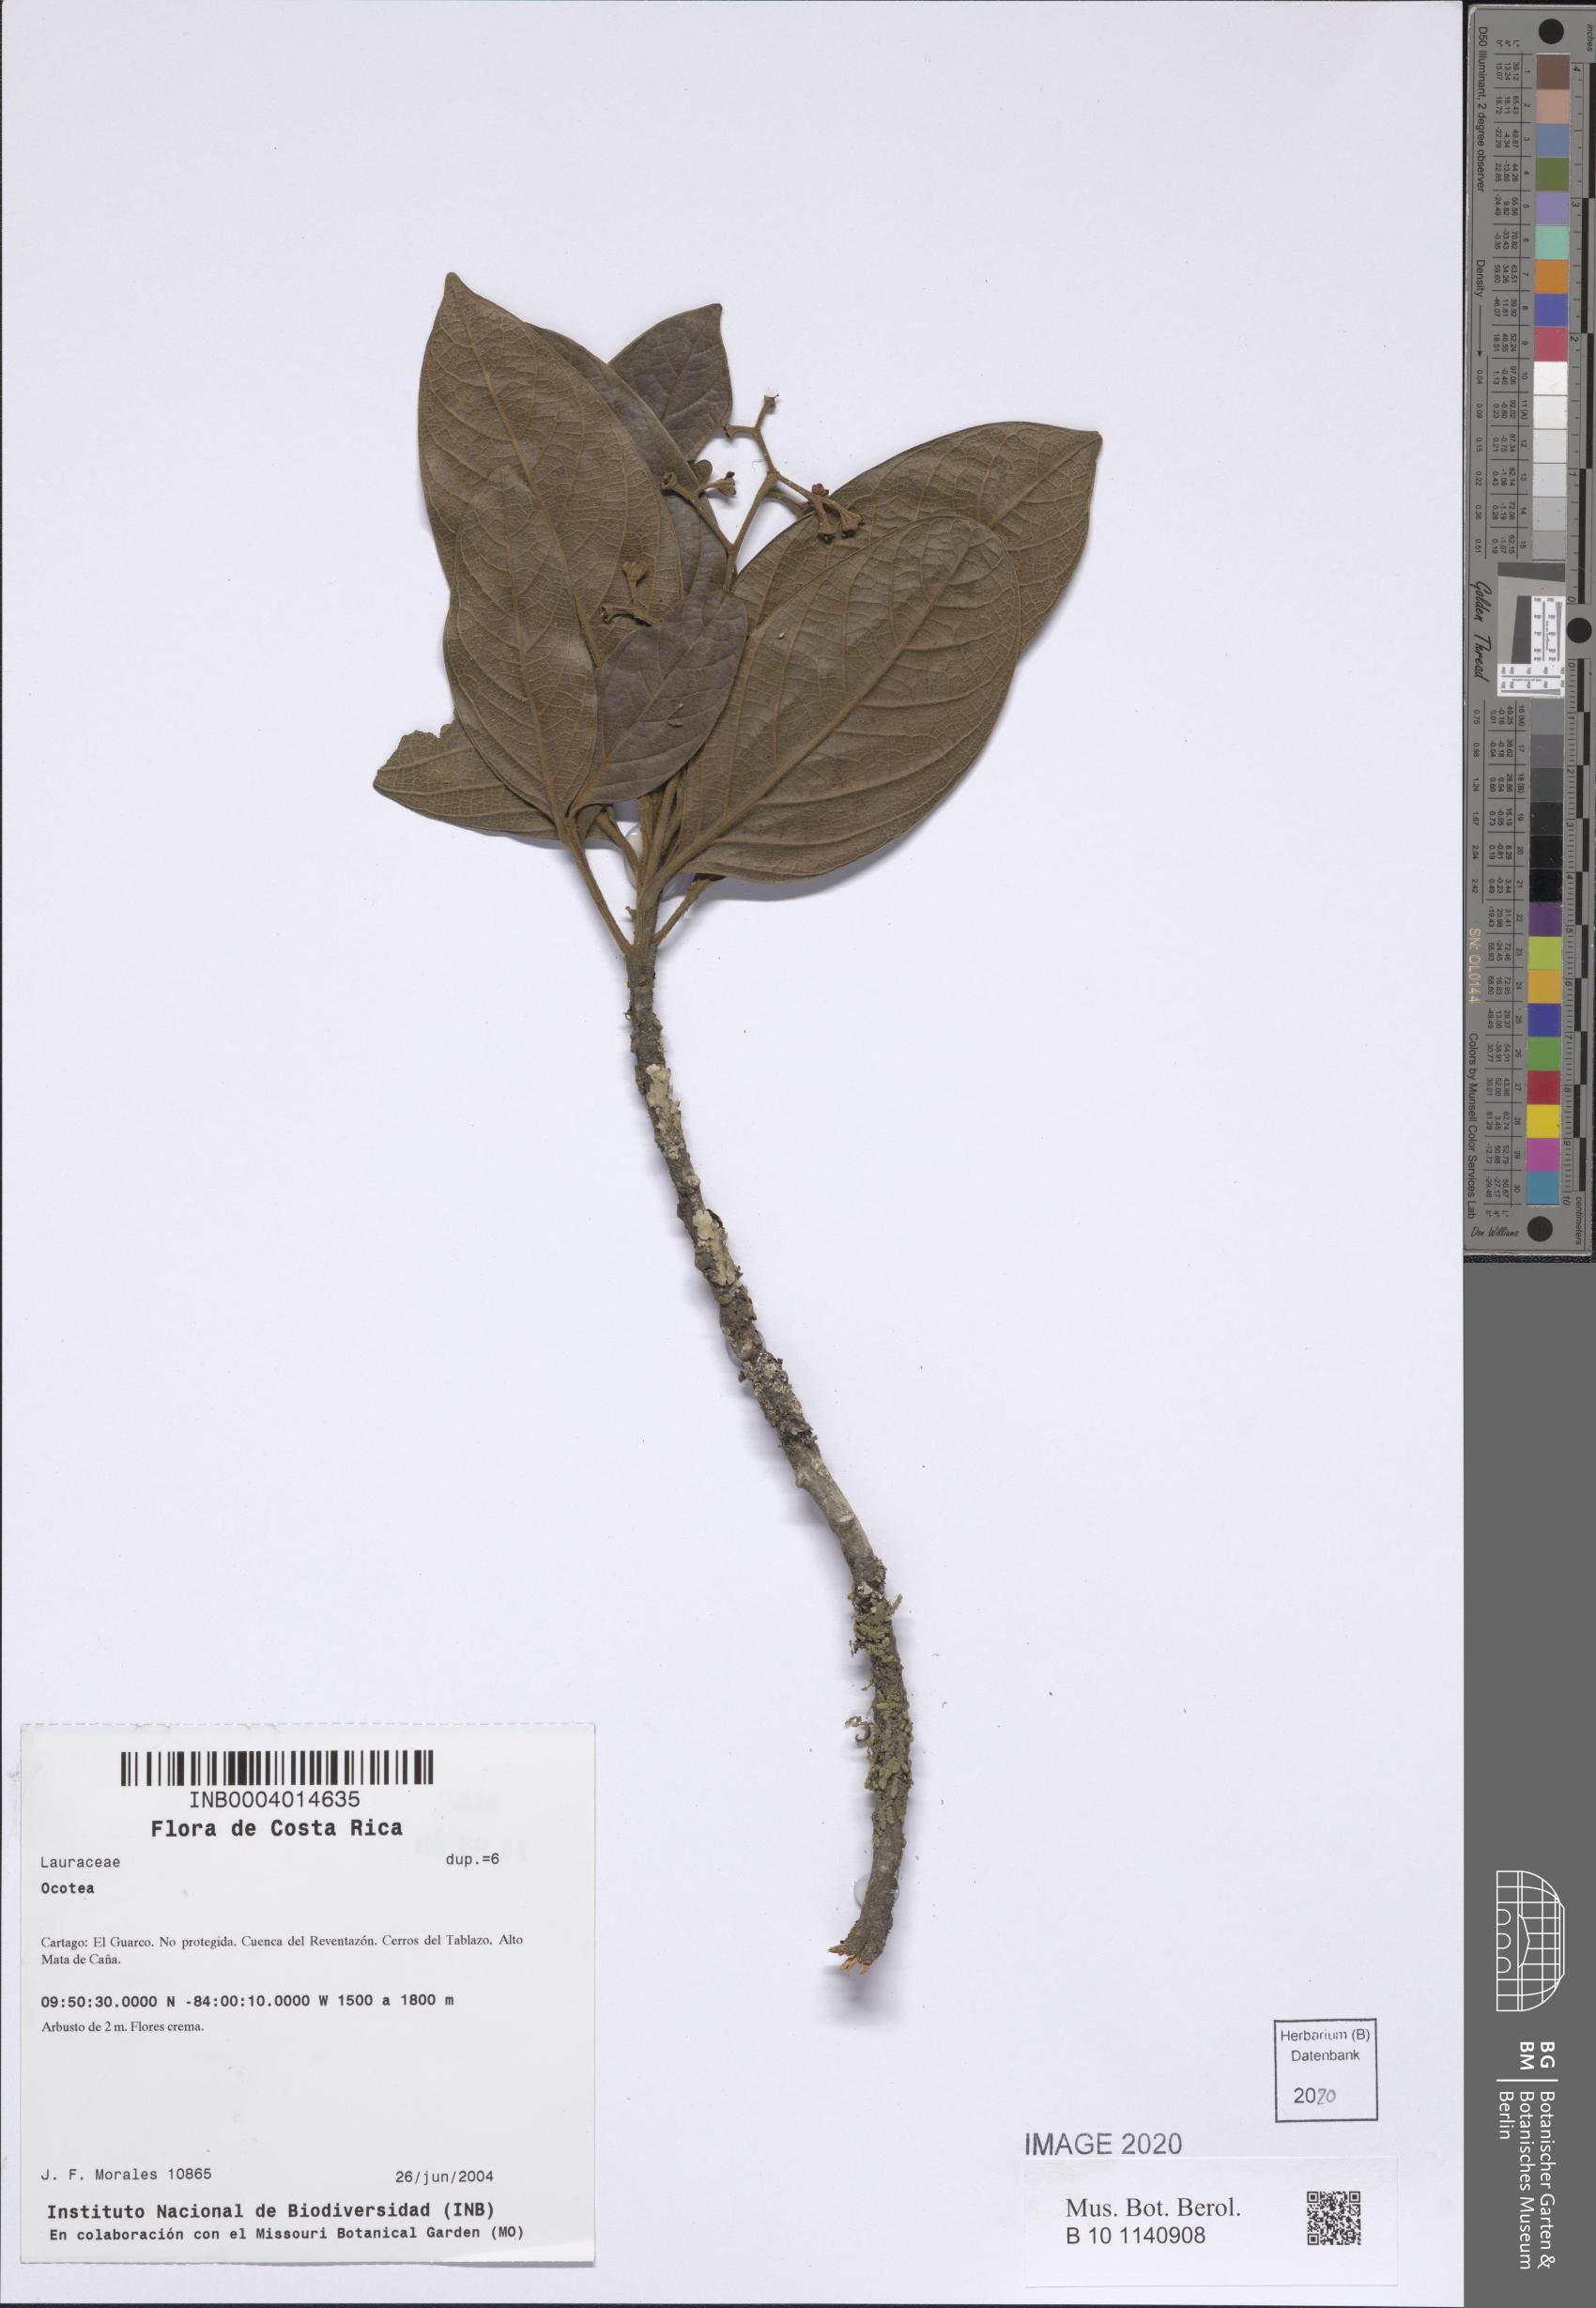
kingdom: Plantae
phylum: Tracheophyta
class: Magnoliopsida
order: Laurales
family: Lauraceae
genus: Ocotea
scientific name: Ocotea
